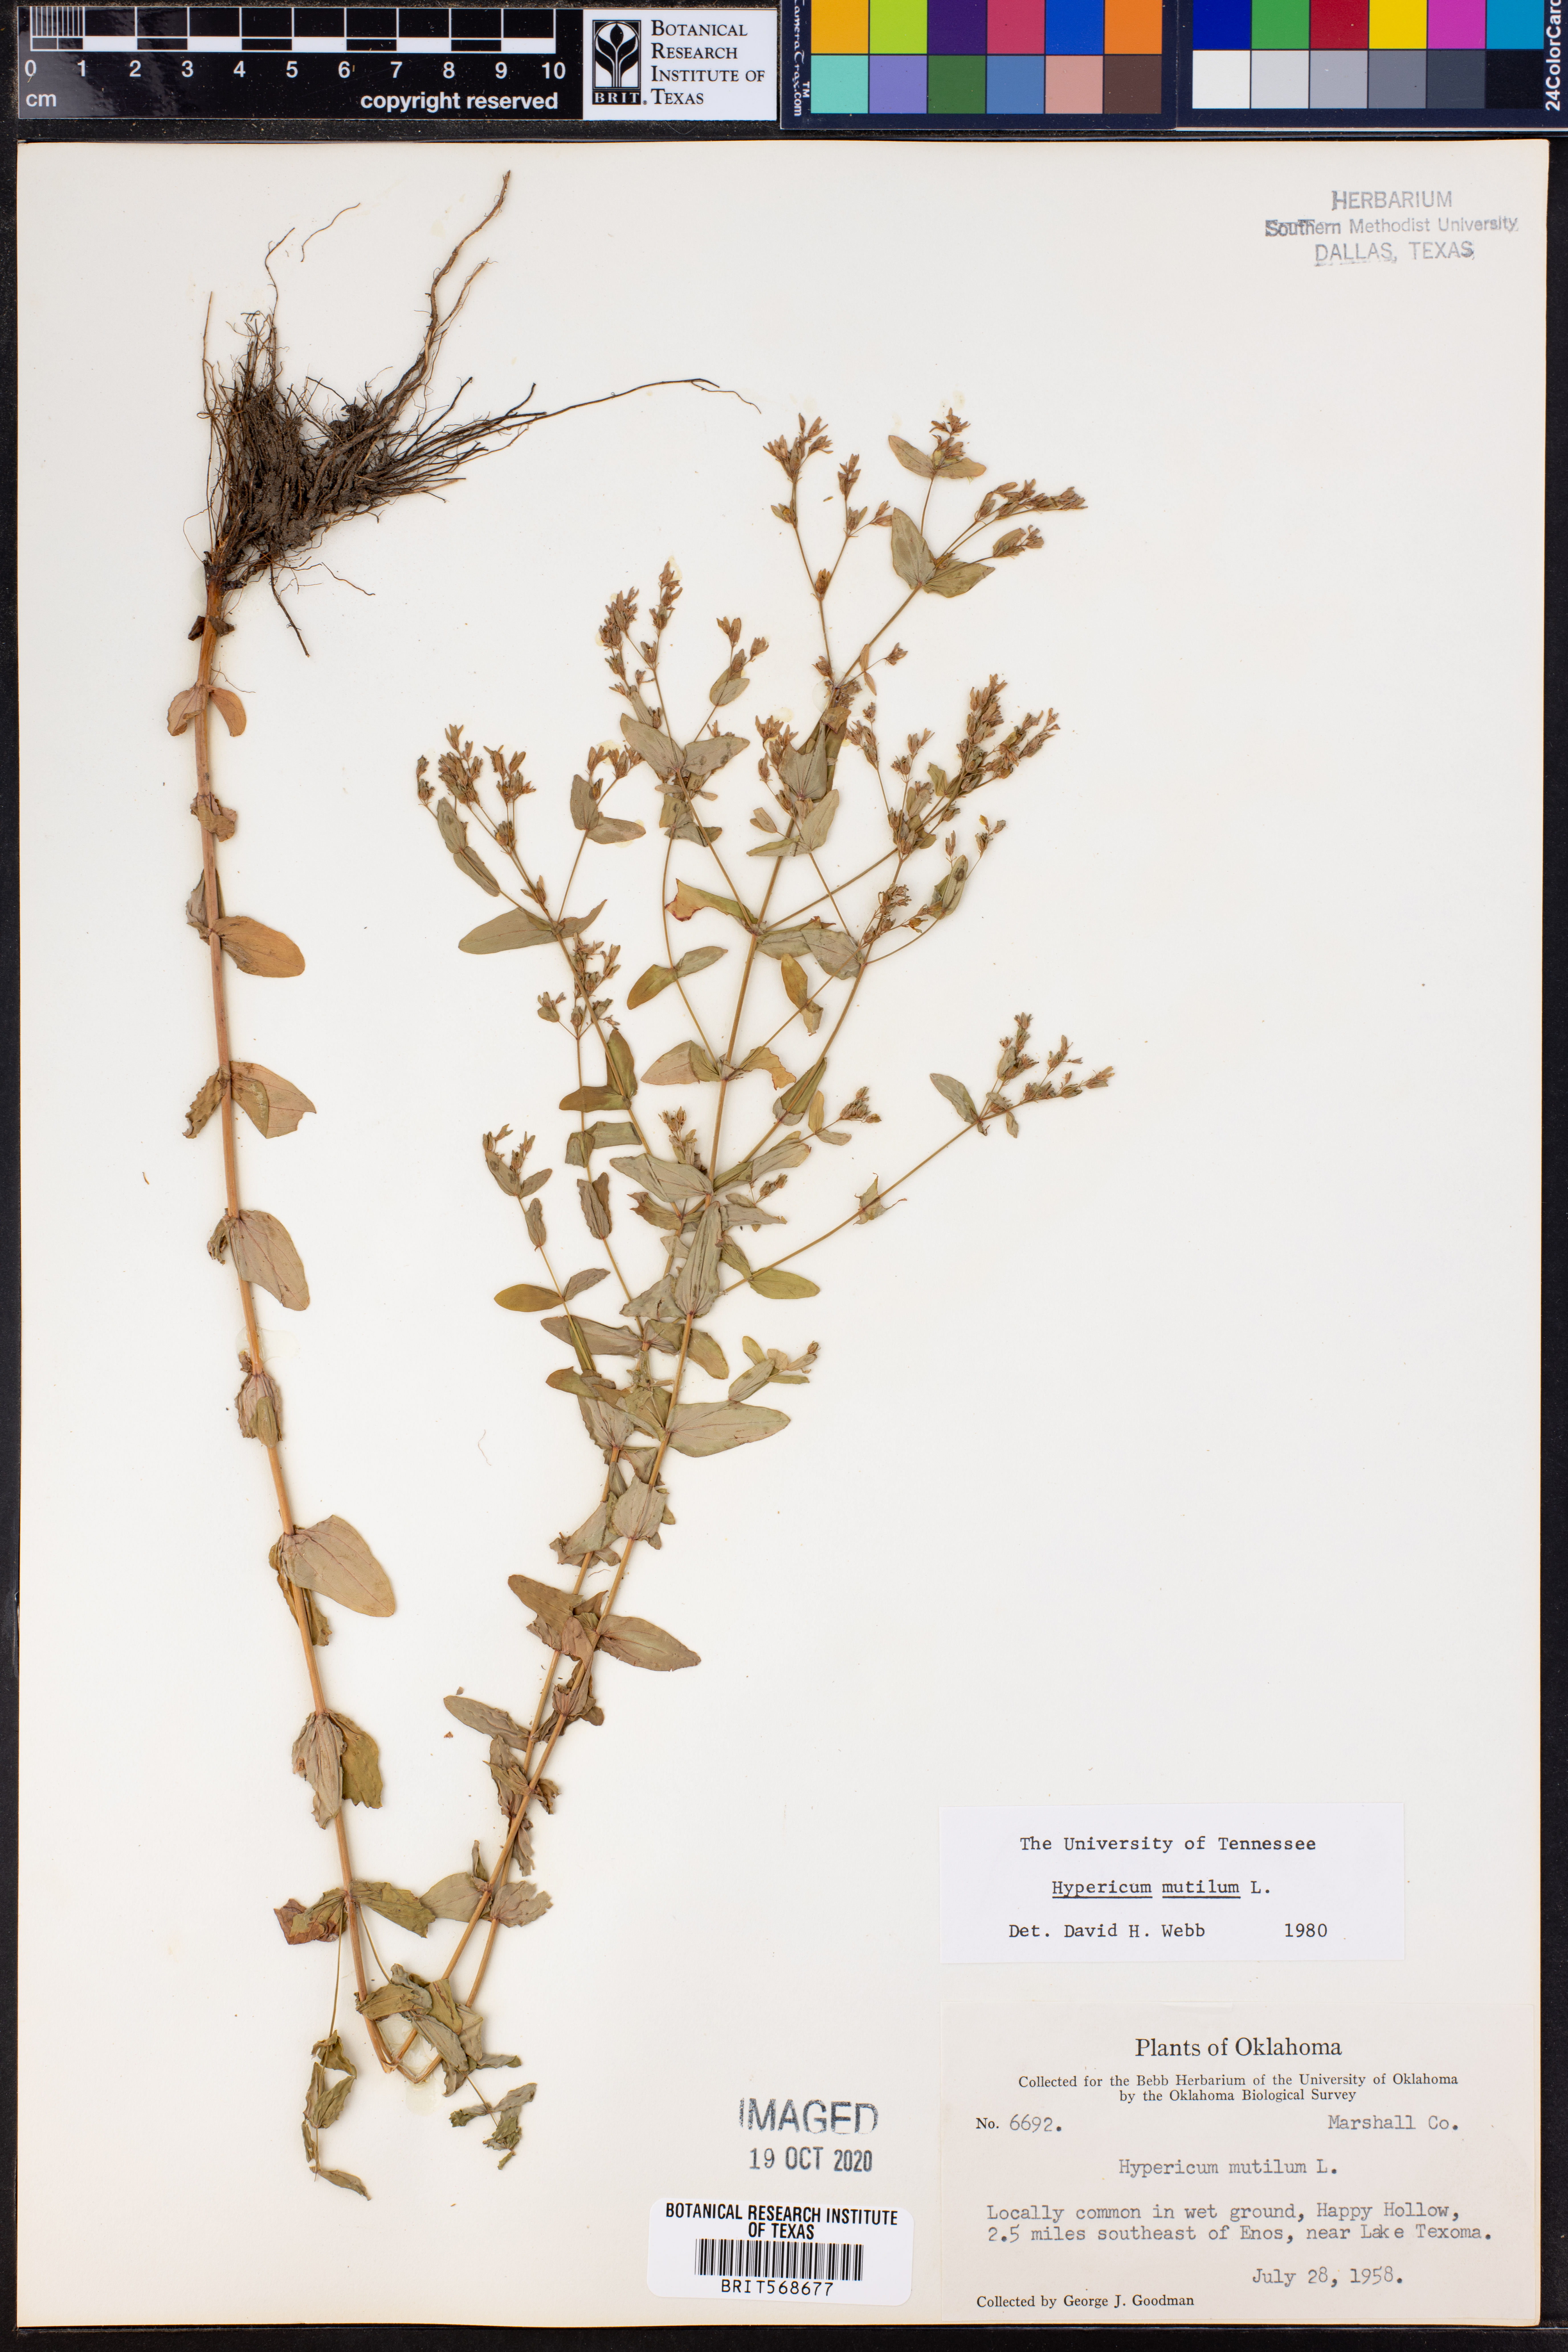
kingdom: Plantae
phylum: Tracheophyta
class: Magnoliopsida
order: Malpighiales
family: Hypericaceae
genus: Hypericum
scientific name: Hypericum mutilum
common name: Dwarf st. john's-wort
